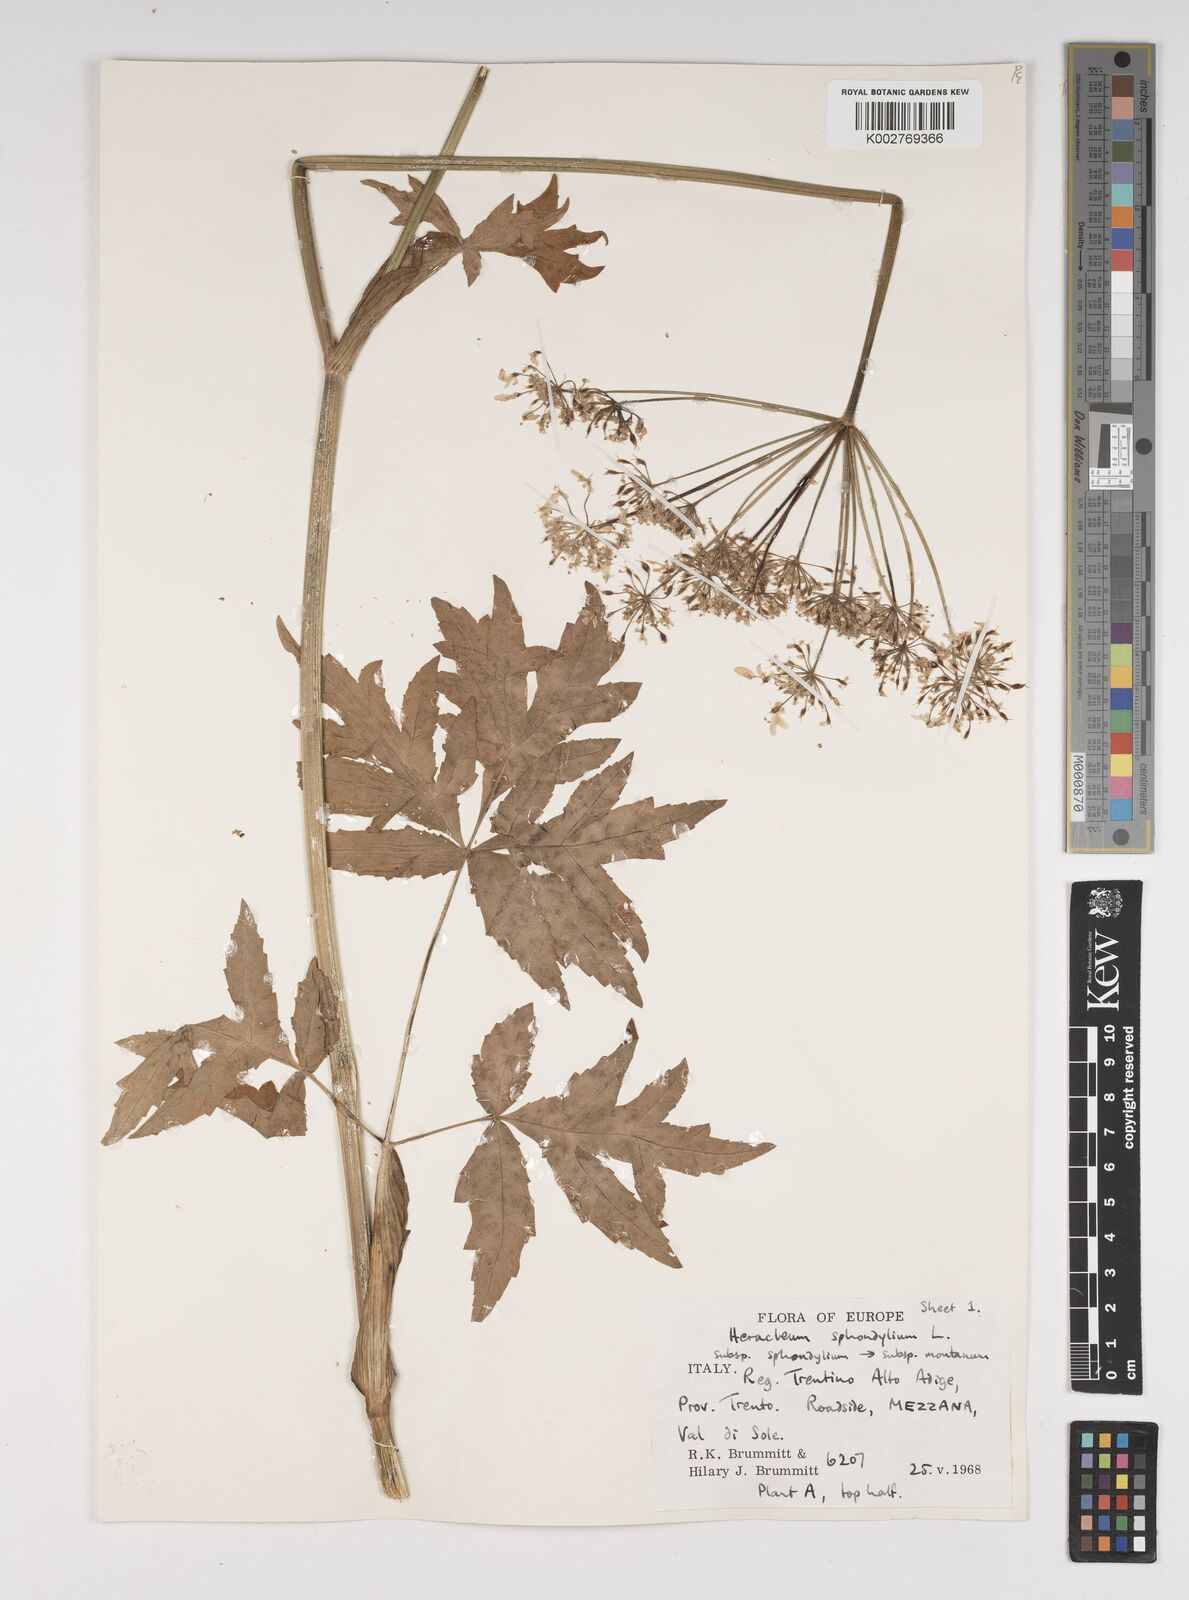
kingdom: Plantae
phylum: Tracheophyta
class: Magnoliopsida
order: Apiales
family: Apiaceae
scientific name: Apiaceae
